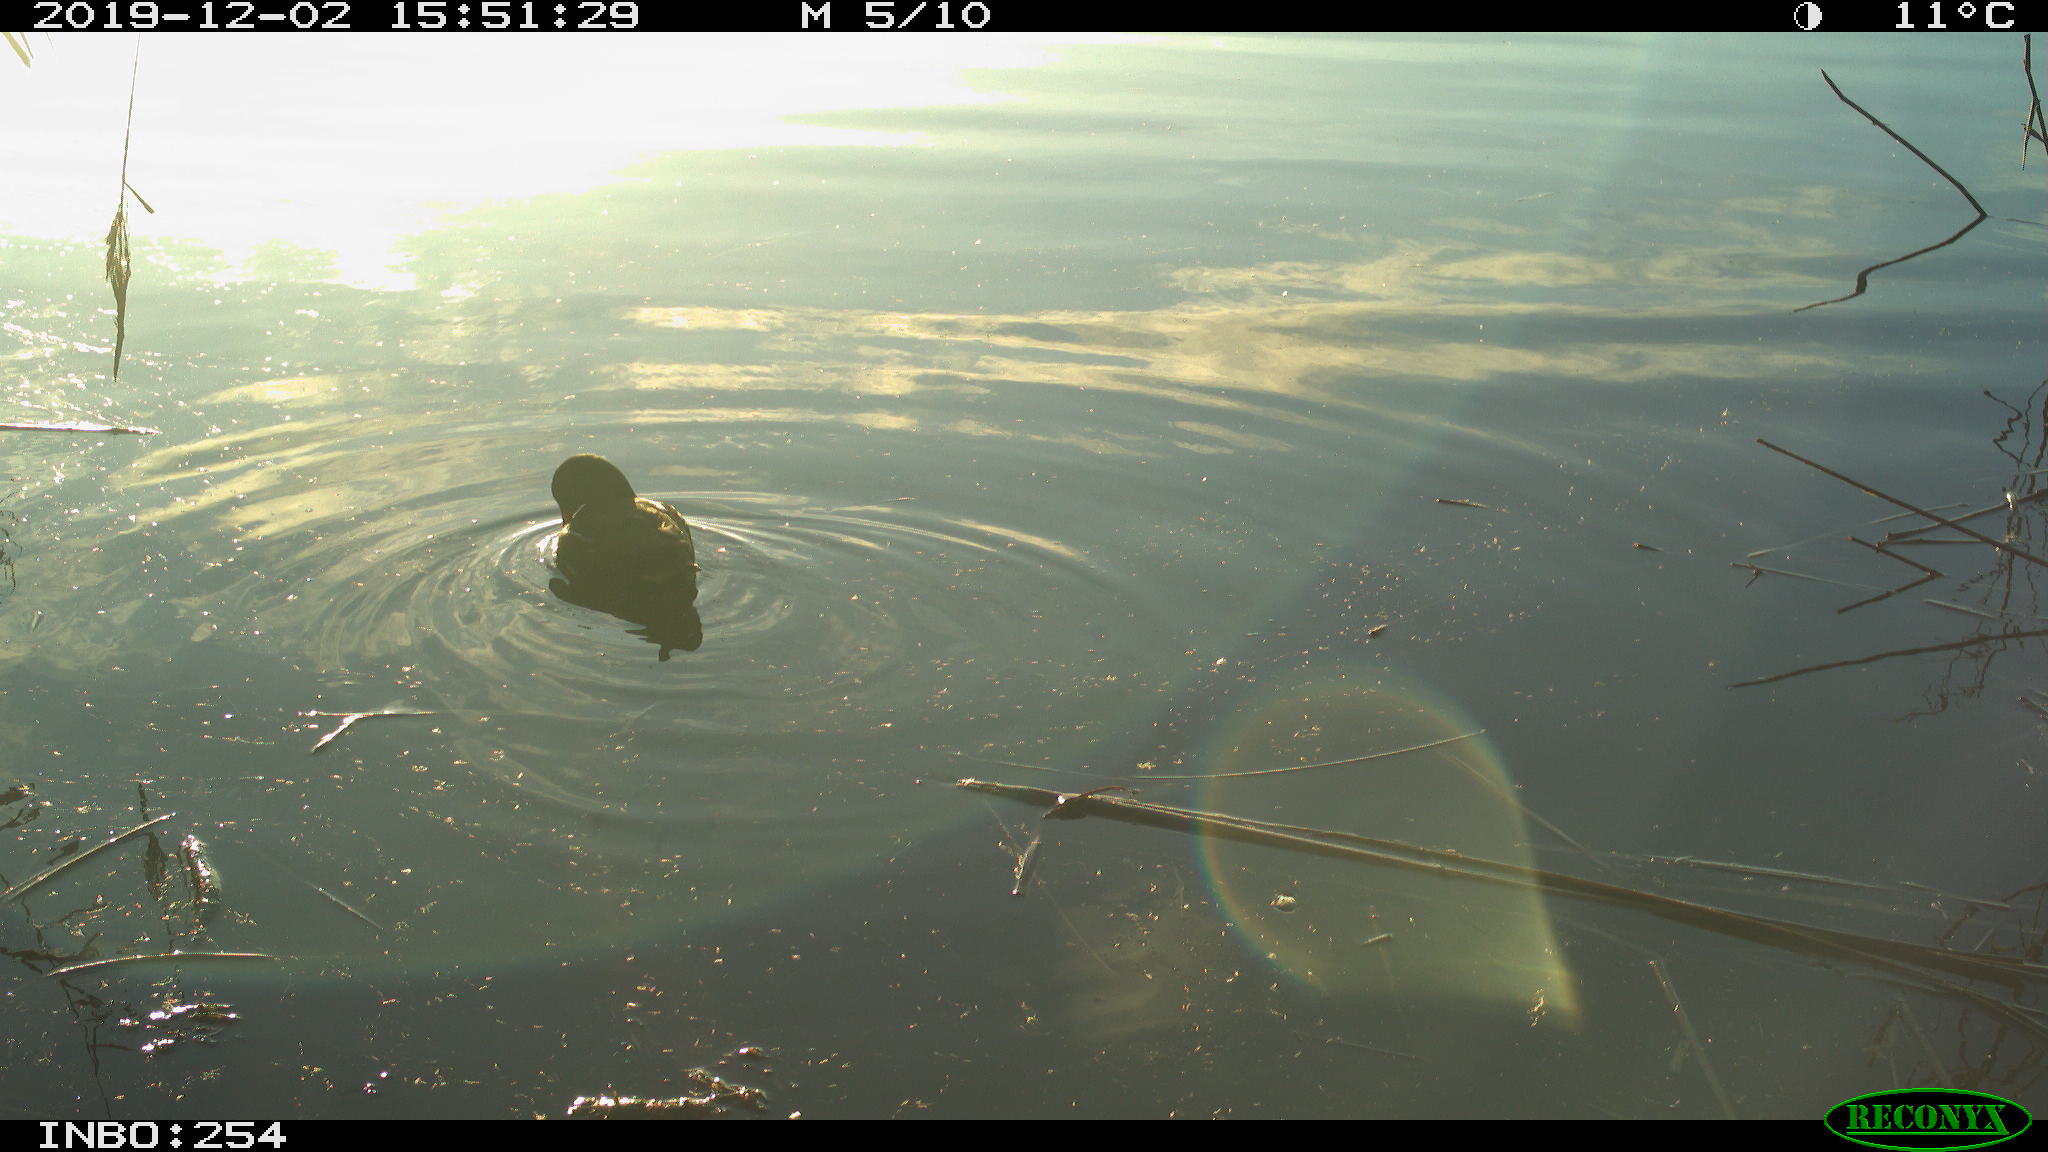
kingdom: Animalia
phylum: Chordata
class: Aves
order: Gruiformes
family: Rallidae
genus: Gallinula
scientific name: Gallinula chloropus
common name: Common moorhen
